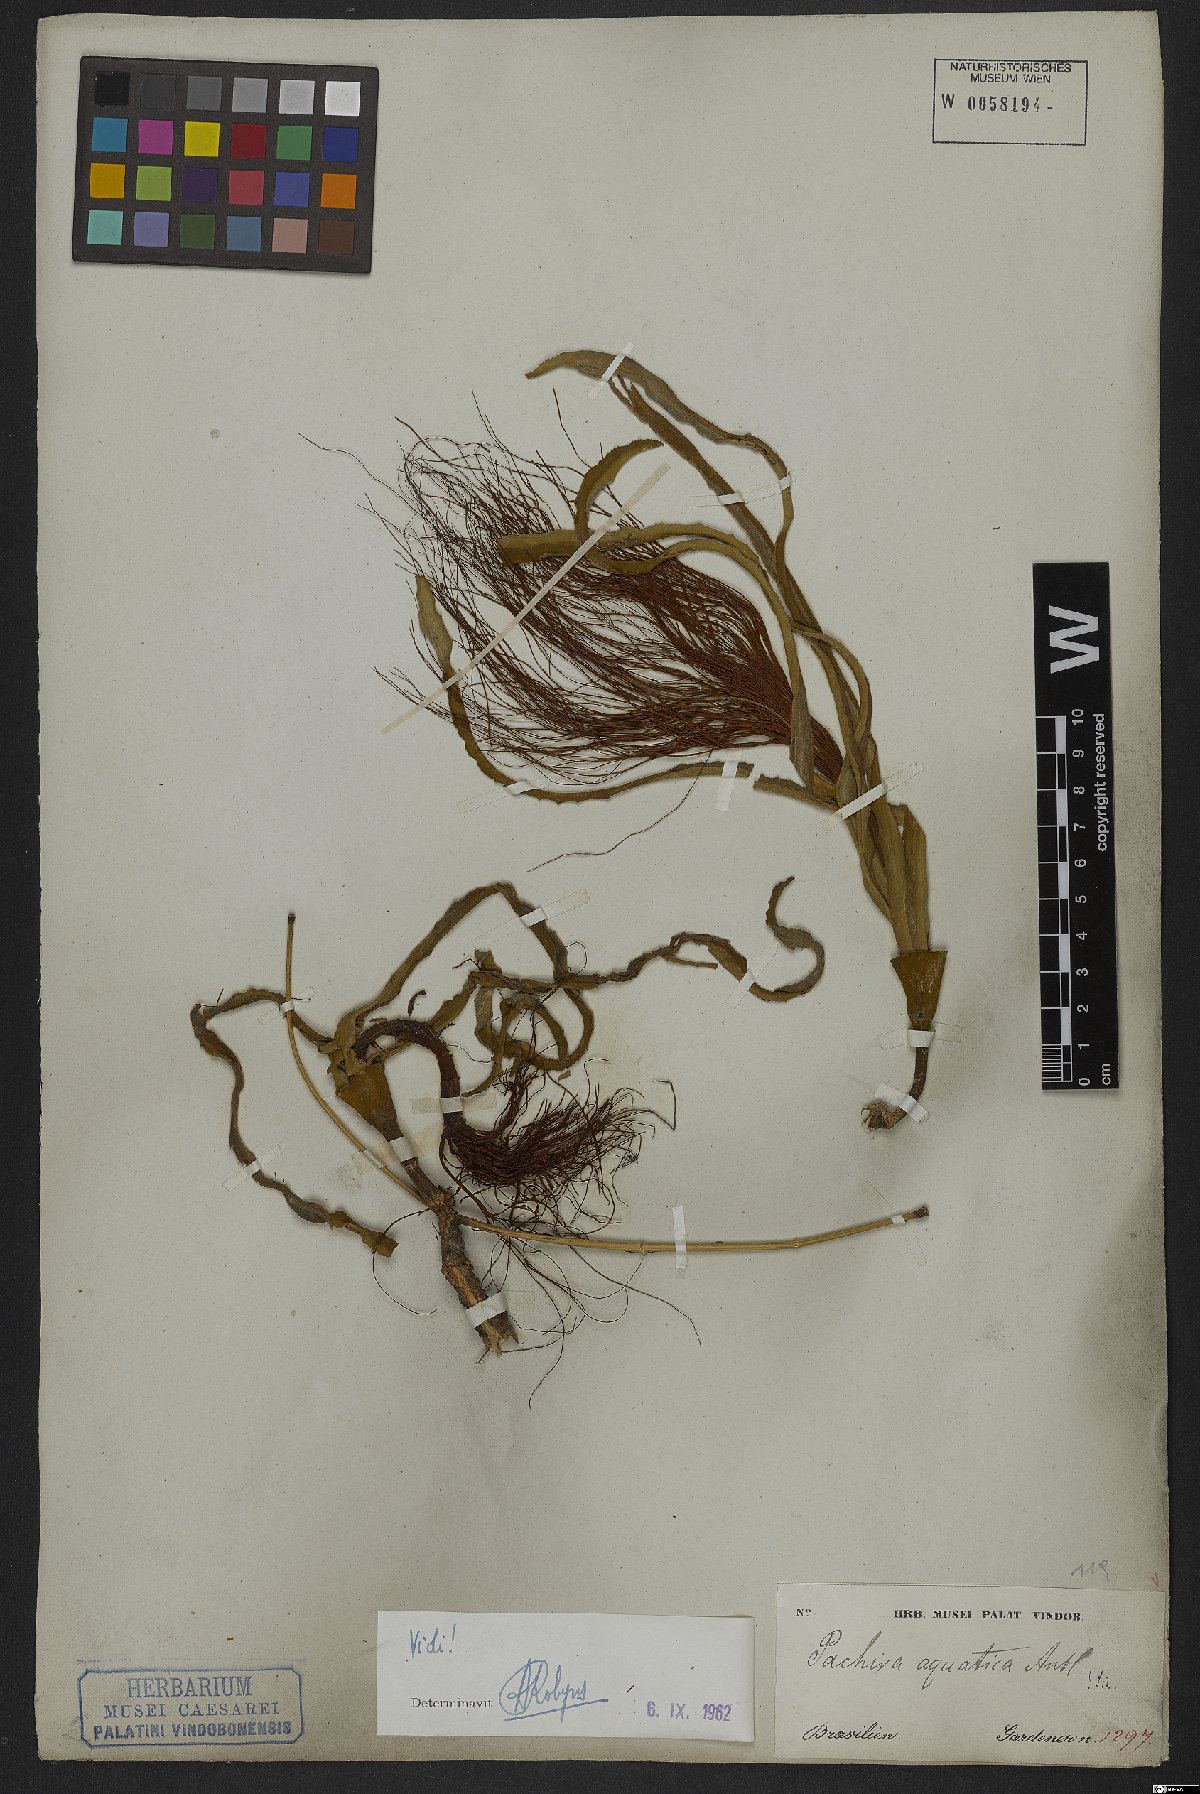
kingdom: Plantae
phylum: Tracheophyta
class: Magnoliopsida
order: Malvales
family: Malvaceae
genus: Pachira
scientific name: Pachira aquatica
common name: Provision-tree
